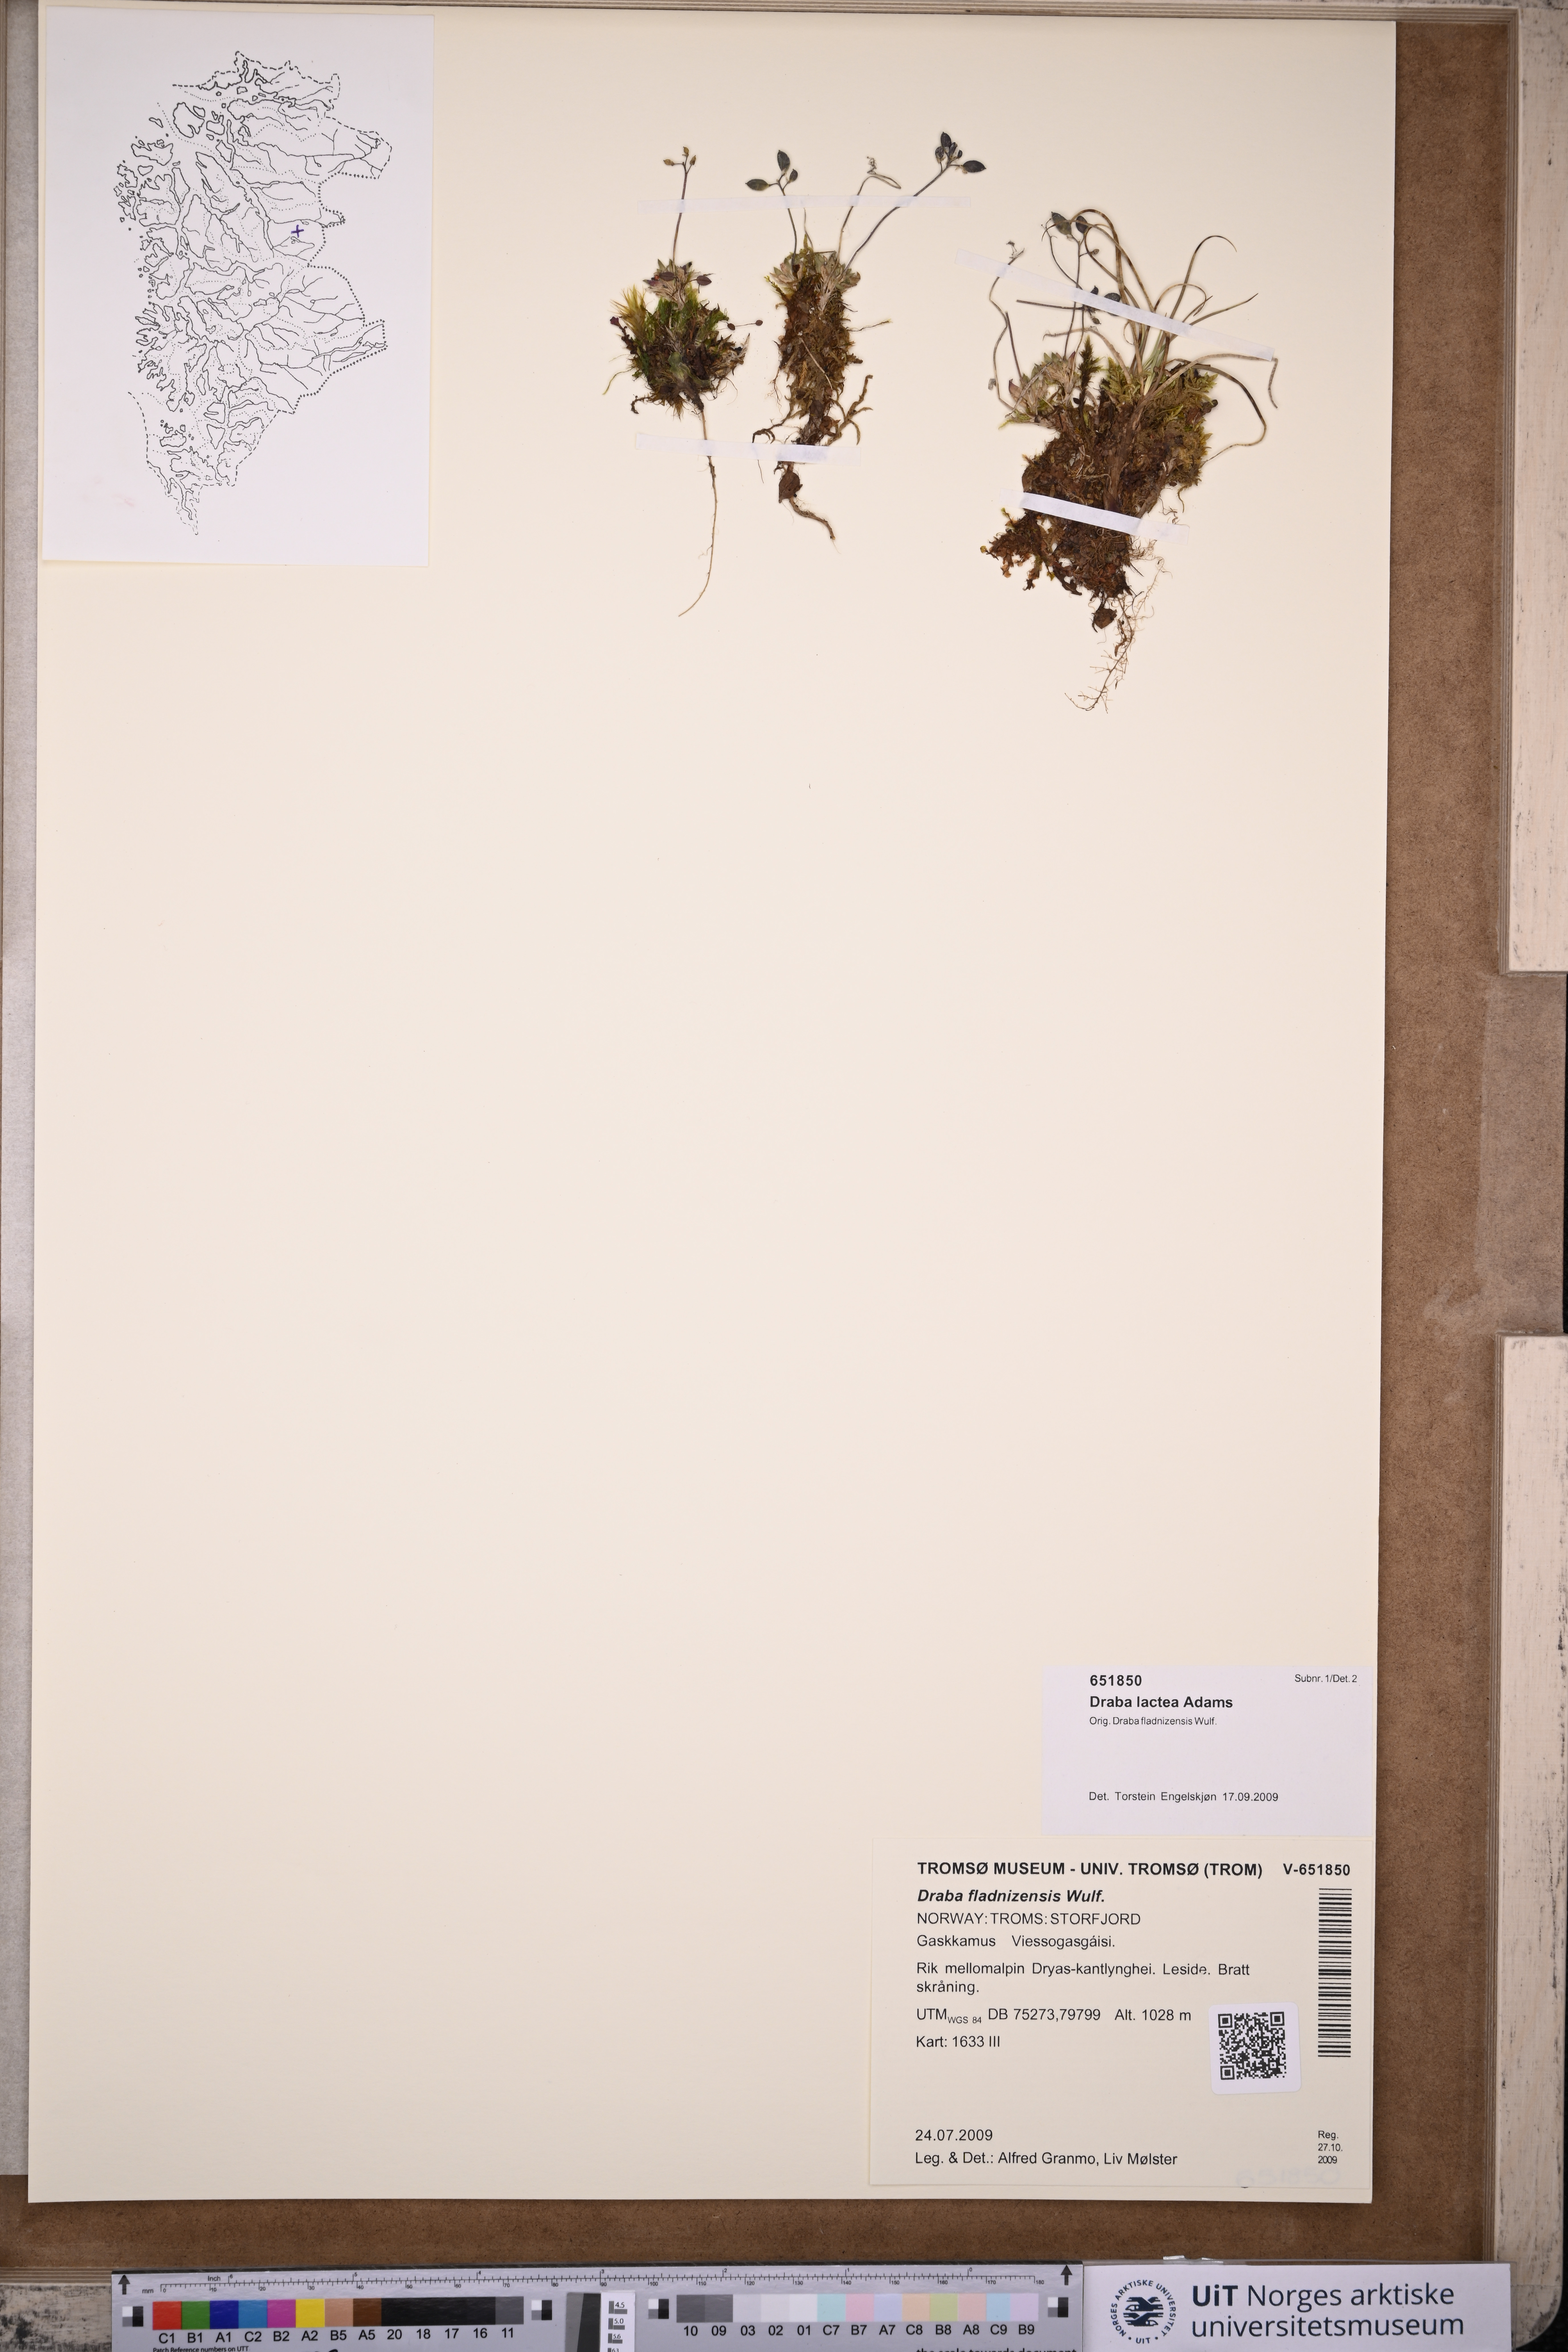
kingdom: Plantae
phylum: Tracheophyta
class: Magnoliopsida
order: Brassicales
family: Brassicaceae
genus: Draba
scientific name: Draba lactea
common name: Milky draba
